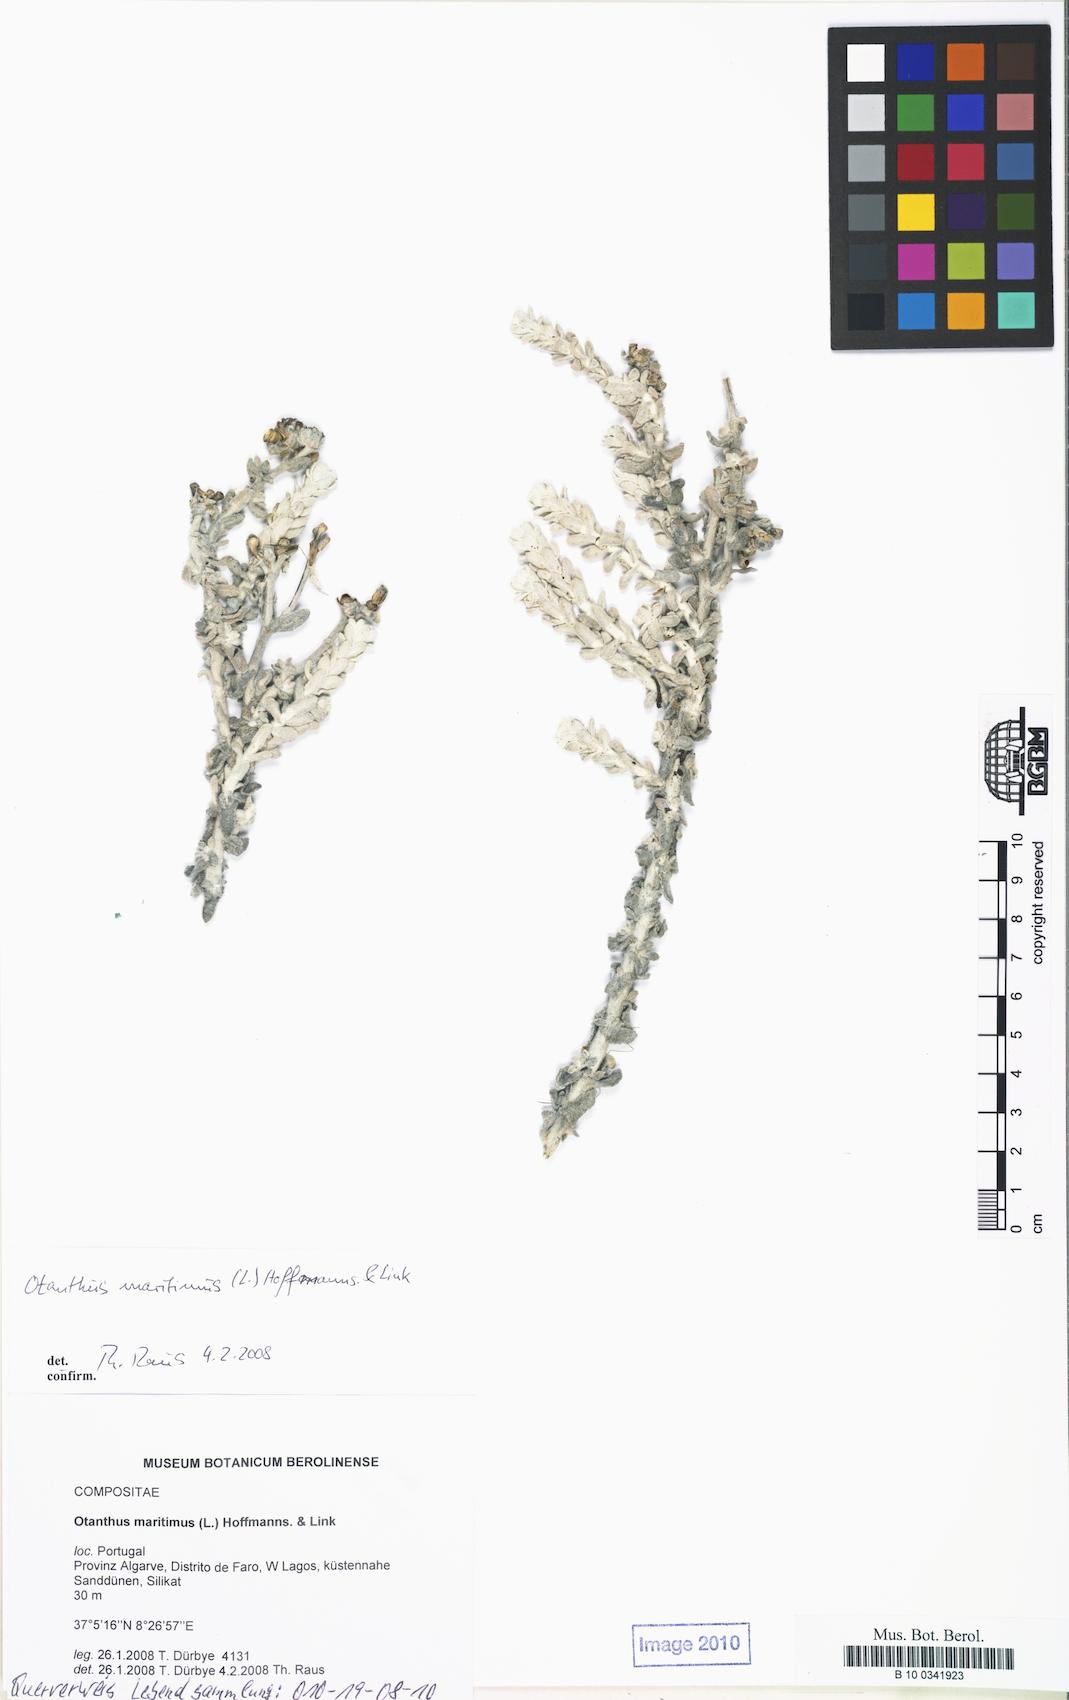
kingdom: Plantae
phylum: Tracheophyta
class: Magnoliopsida
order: Asterales
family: Asteraceae
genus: Achillea
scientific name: Achillea maritima
